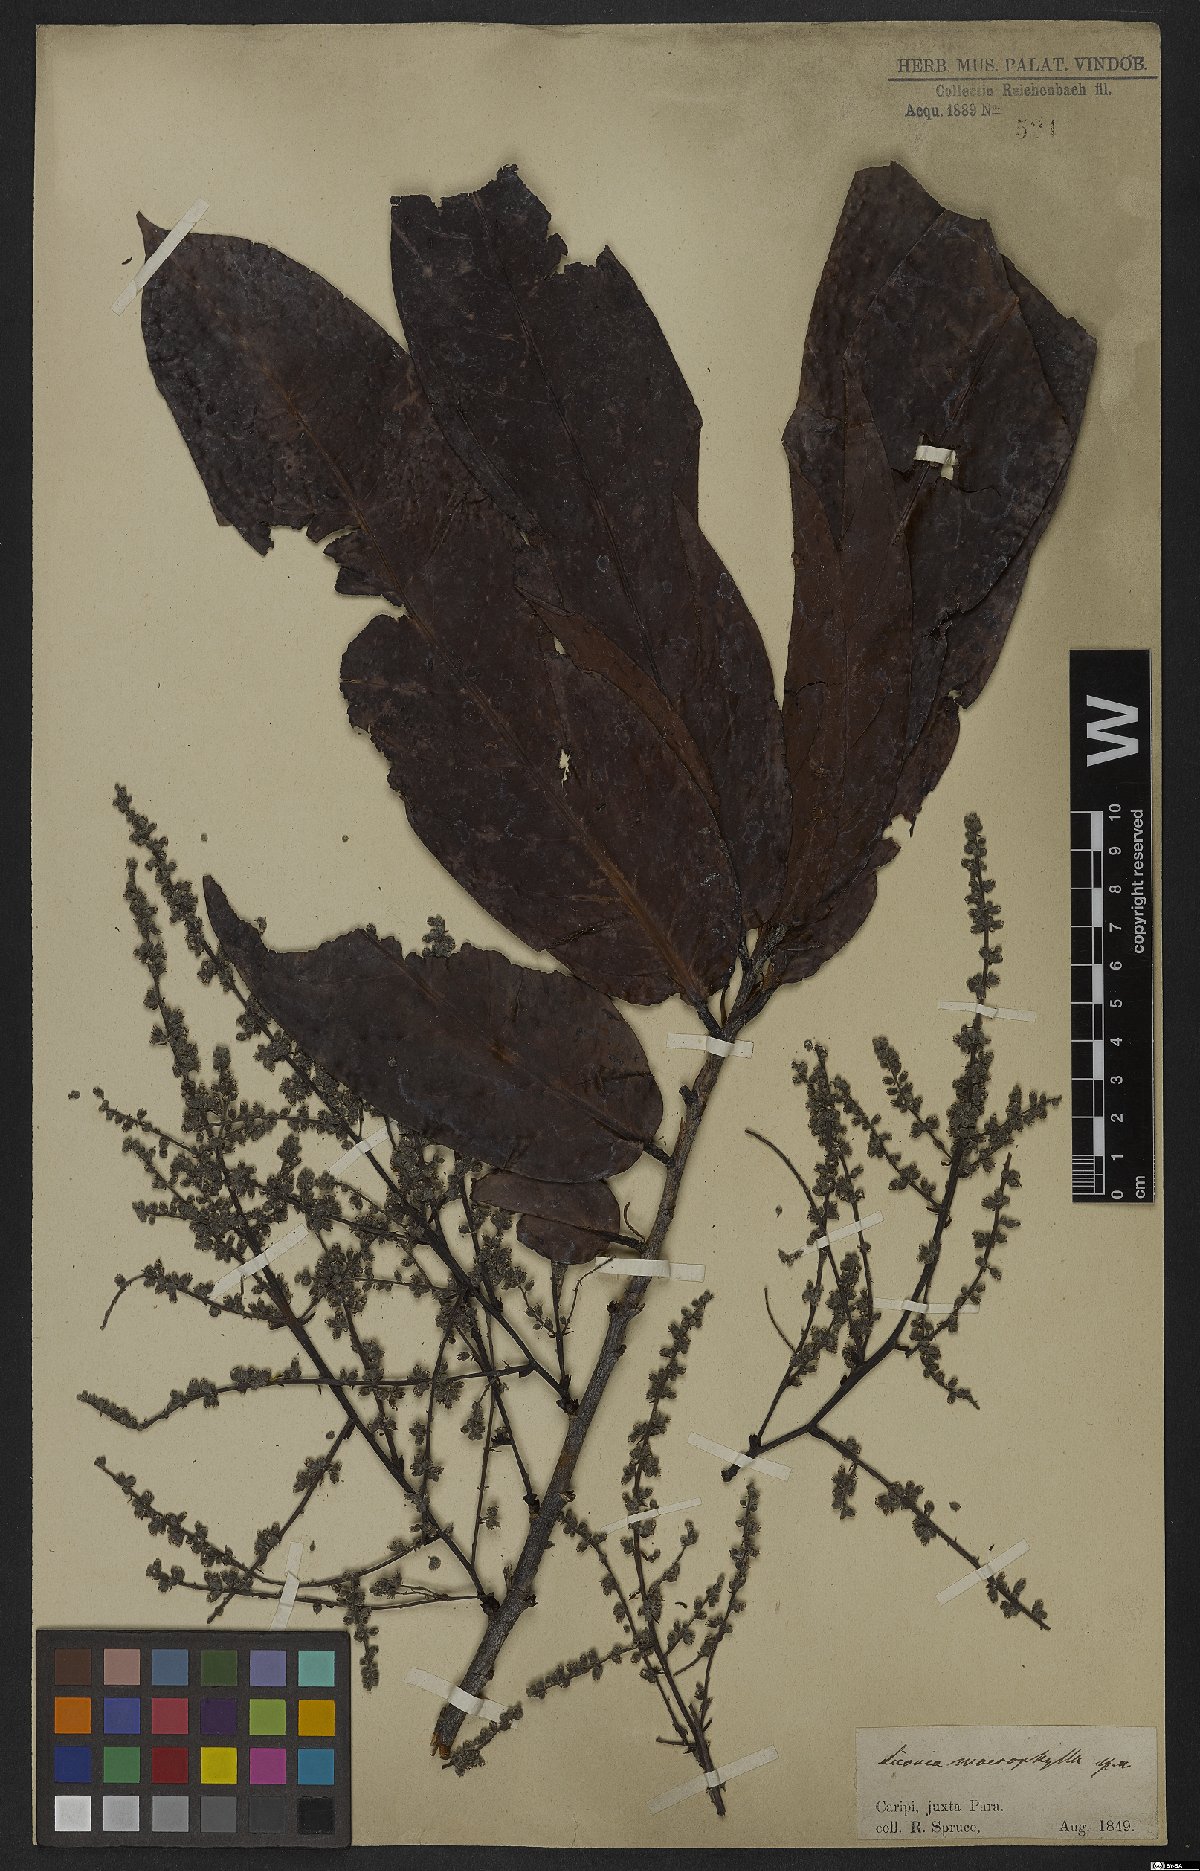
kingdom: Plantae
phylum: Tracheophyta
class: Magnoliopsida
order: Malpighiales
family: Chrysobalanaceae
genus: Hymenopus
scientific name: Hymenopus macrophyllus
